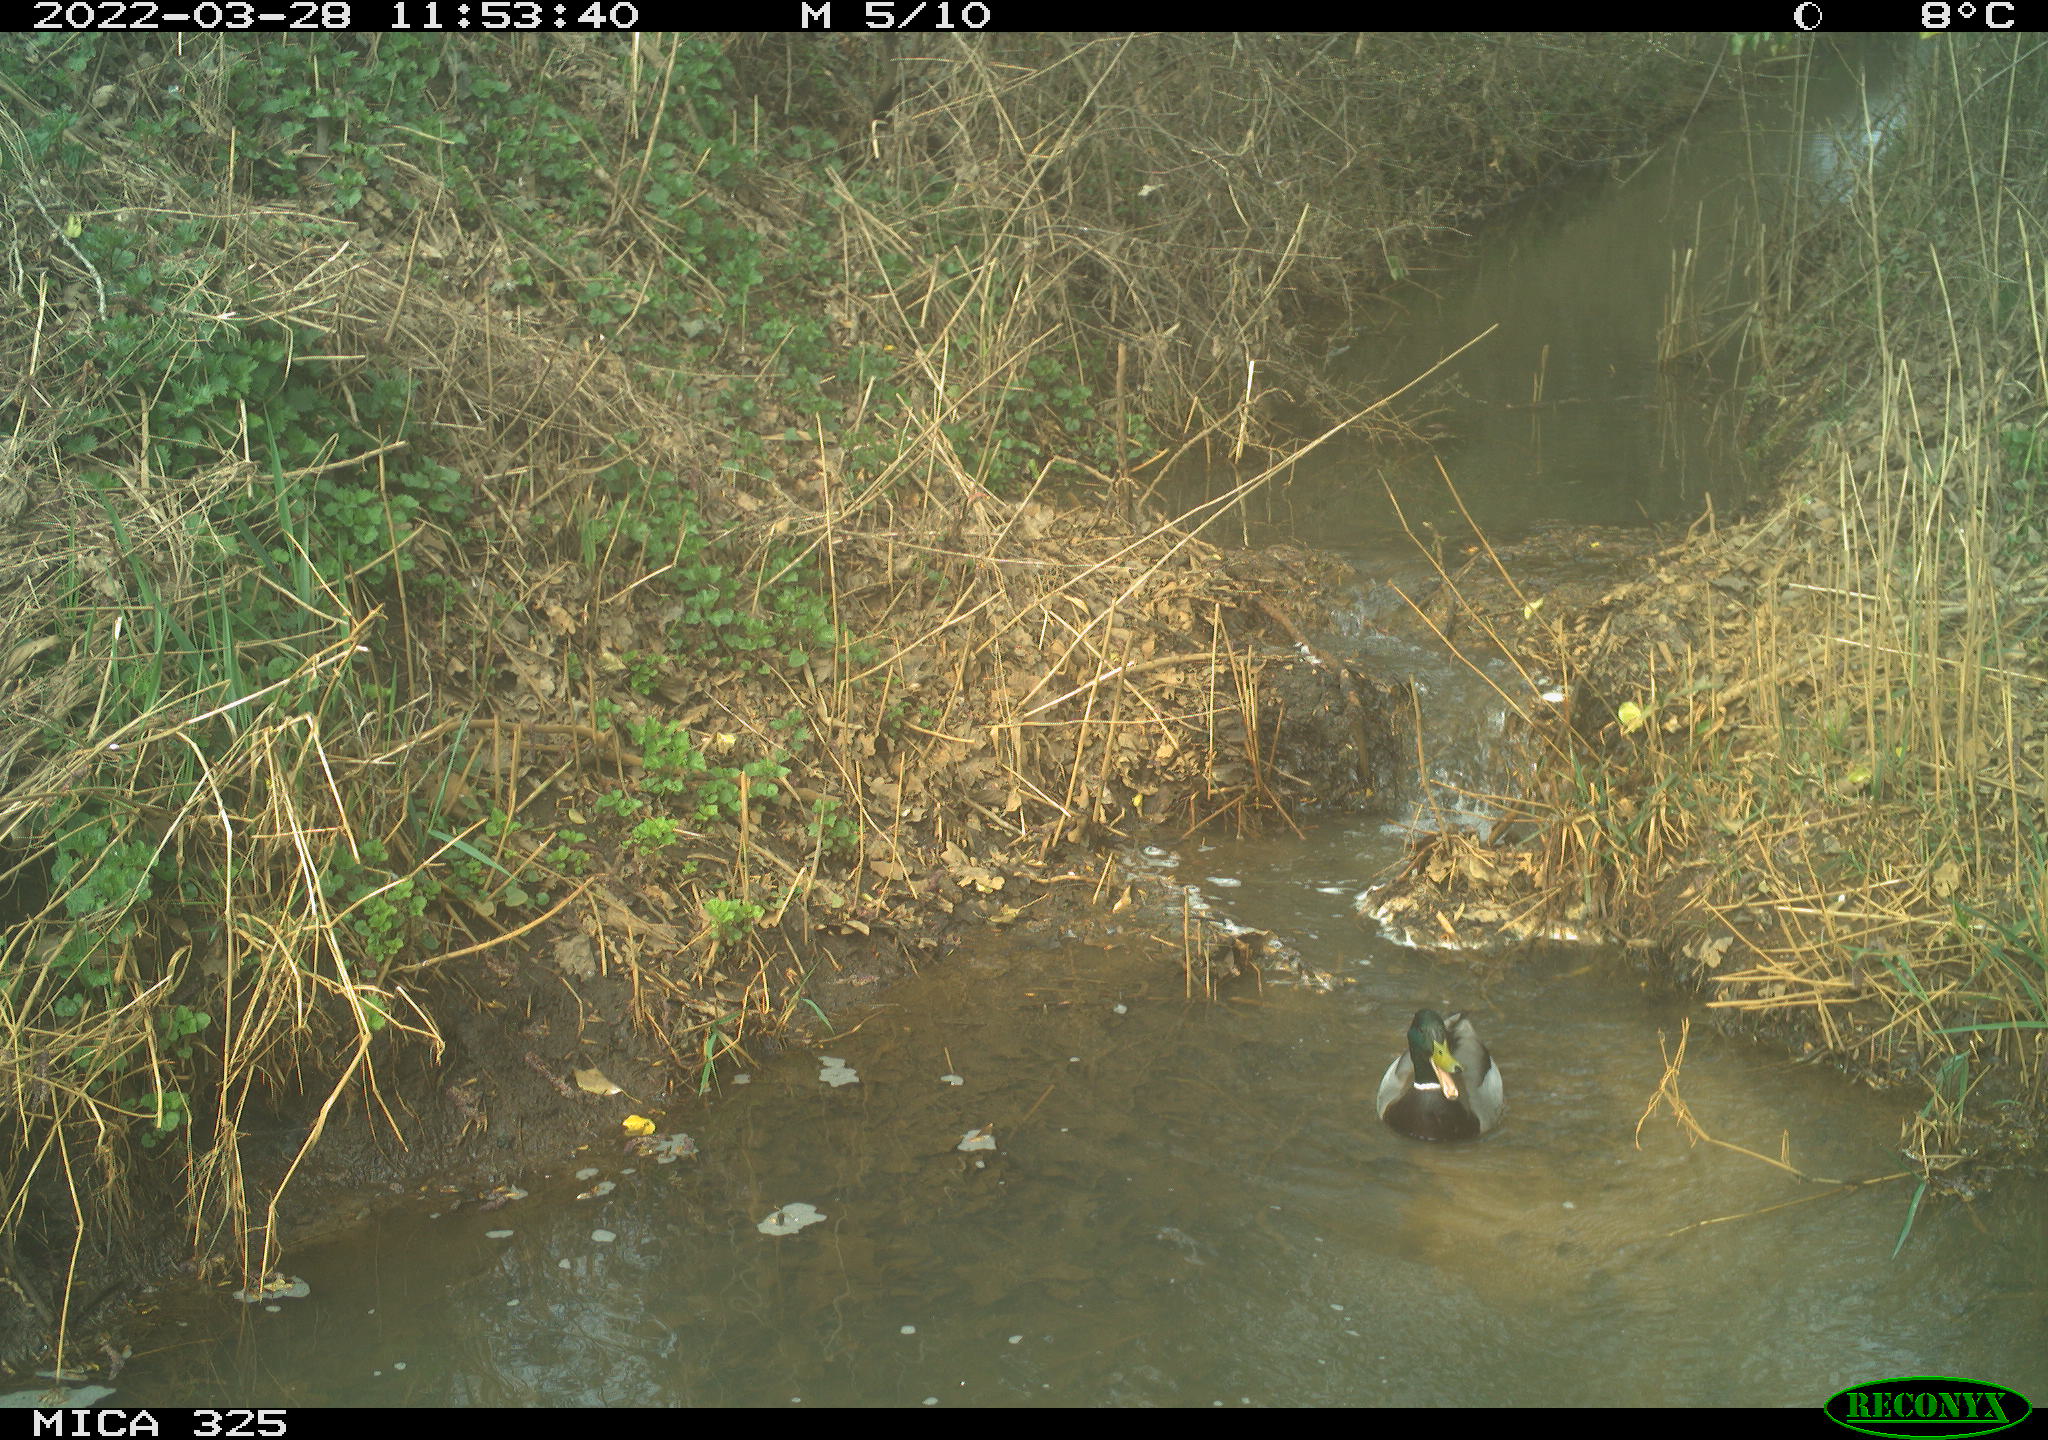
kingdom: Animalia
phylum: Chordata
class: Aves
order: Anseriformes
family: Anatidae
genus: Anas
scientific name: Anas platyrhynchos
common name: Mallard
